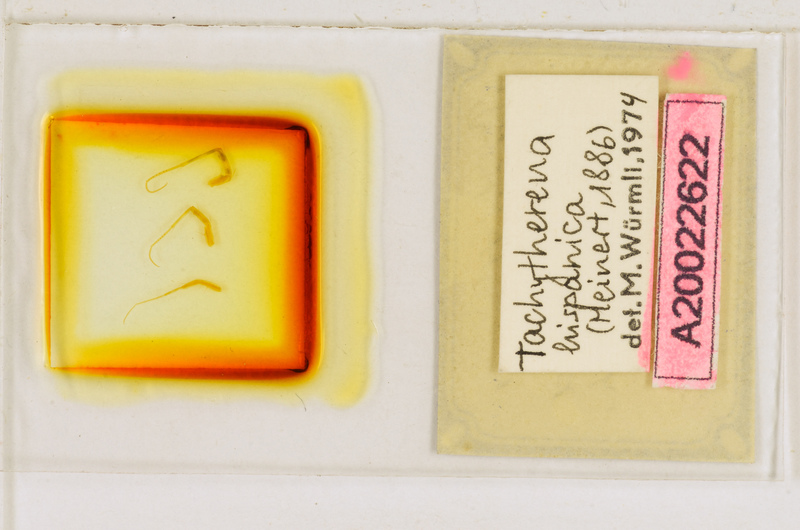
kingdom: Animalia
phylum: Arthropoda
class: Chilopoda
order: Scutigeromorpha
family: Scutigeridae
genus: Tachythereua
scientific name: Tachythereua hispanica
